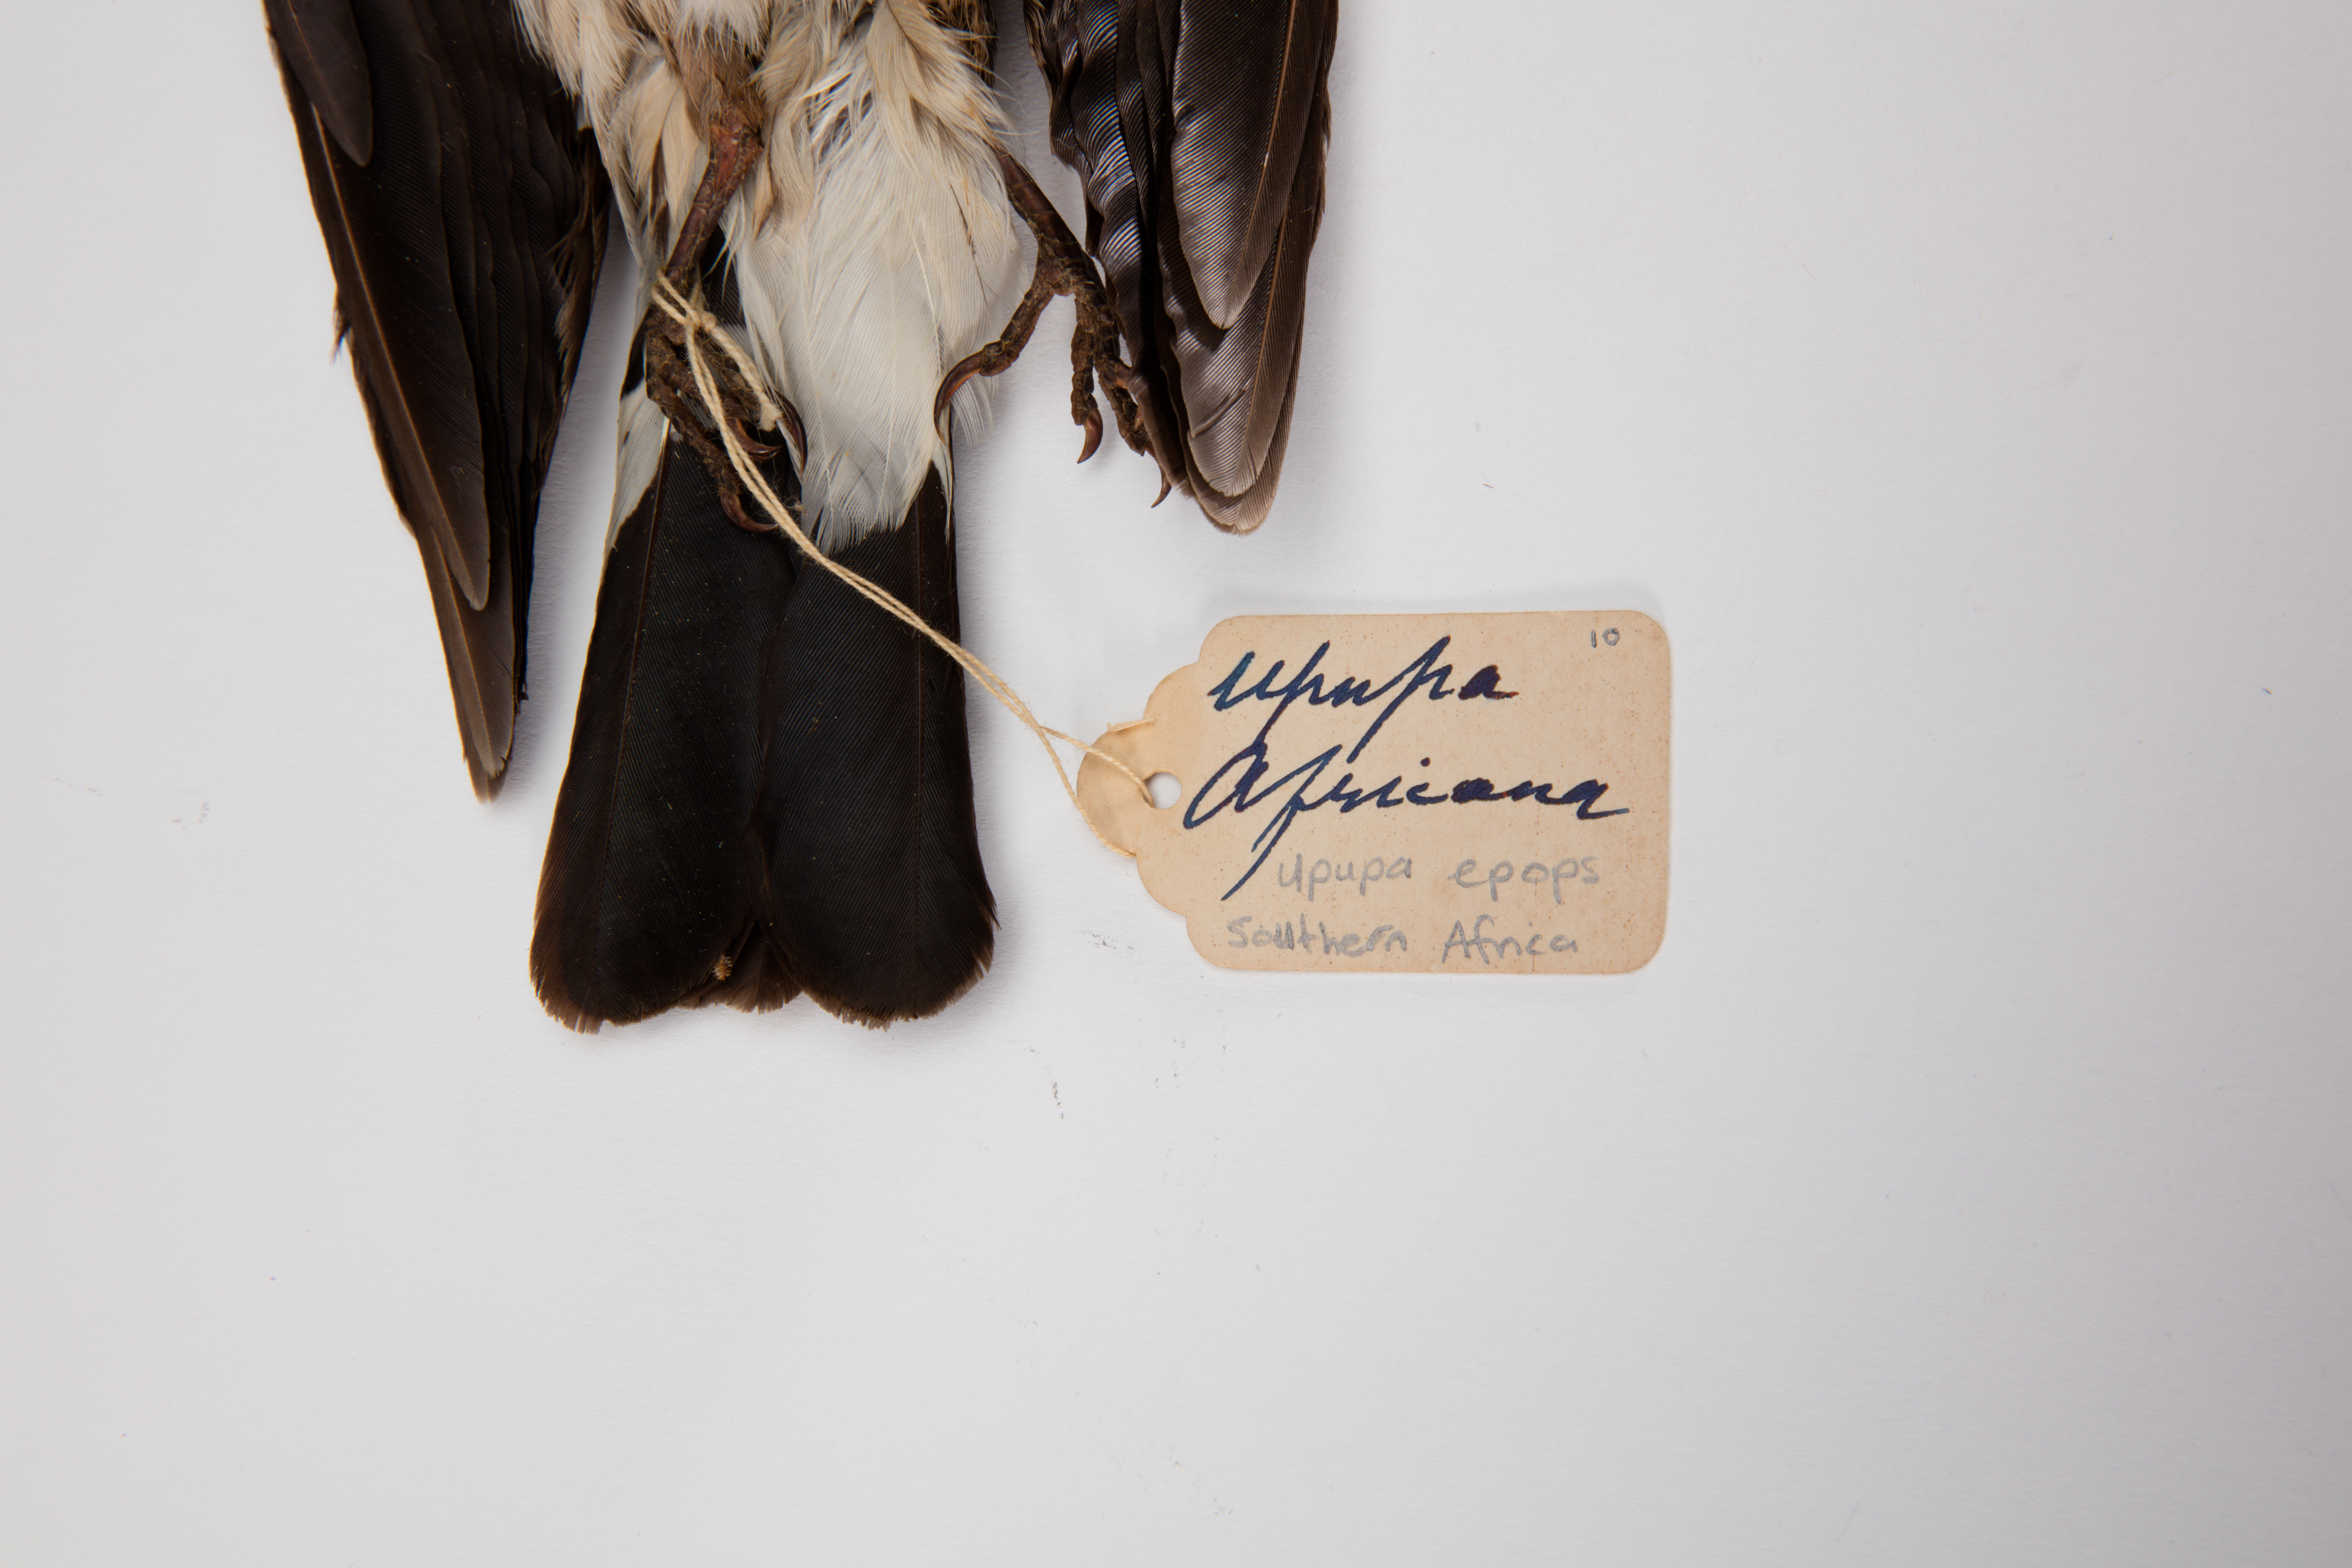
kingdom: Animalia
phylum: Chordata
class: Aves
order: Bucerotiformes
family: Upupidae
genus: Upupa
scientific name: Upupa epops
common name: Eurasian hoopoe
